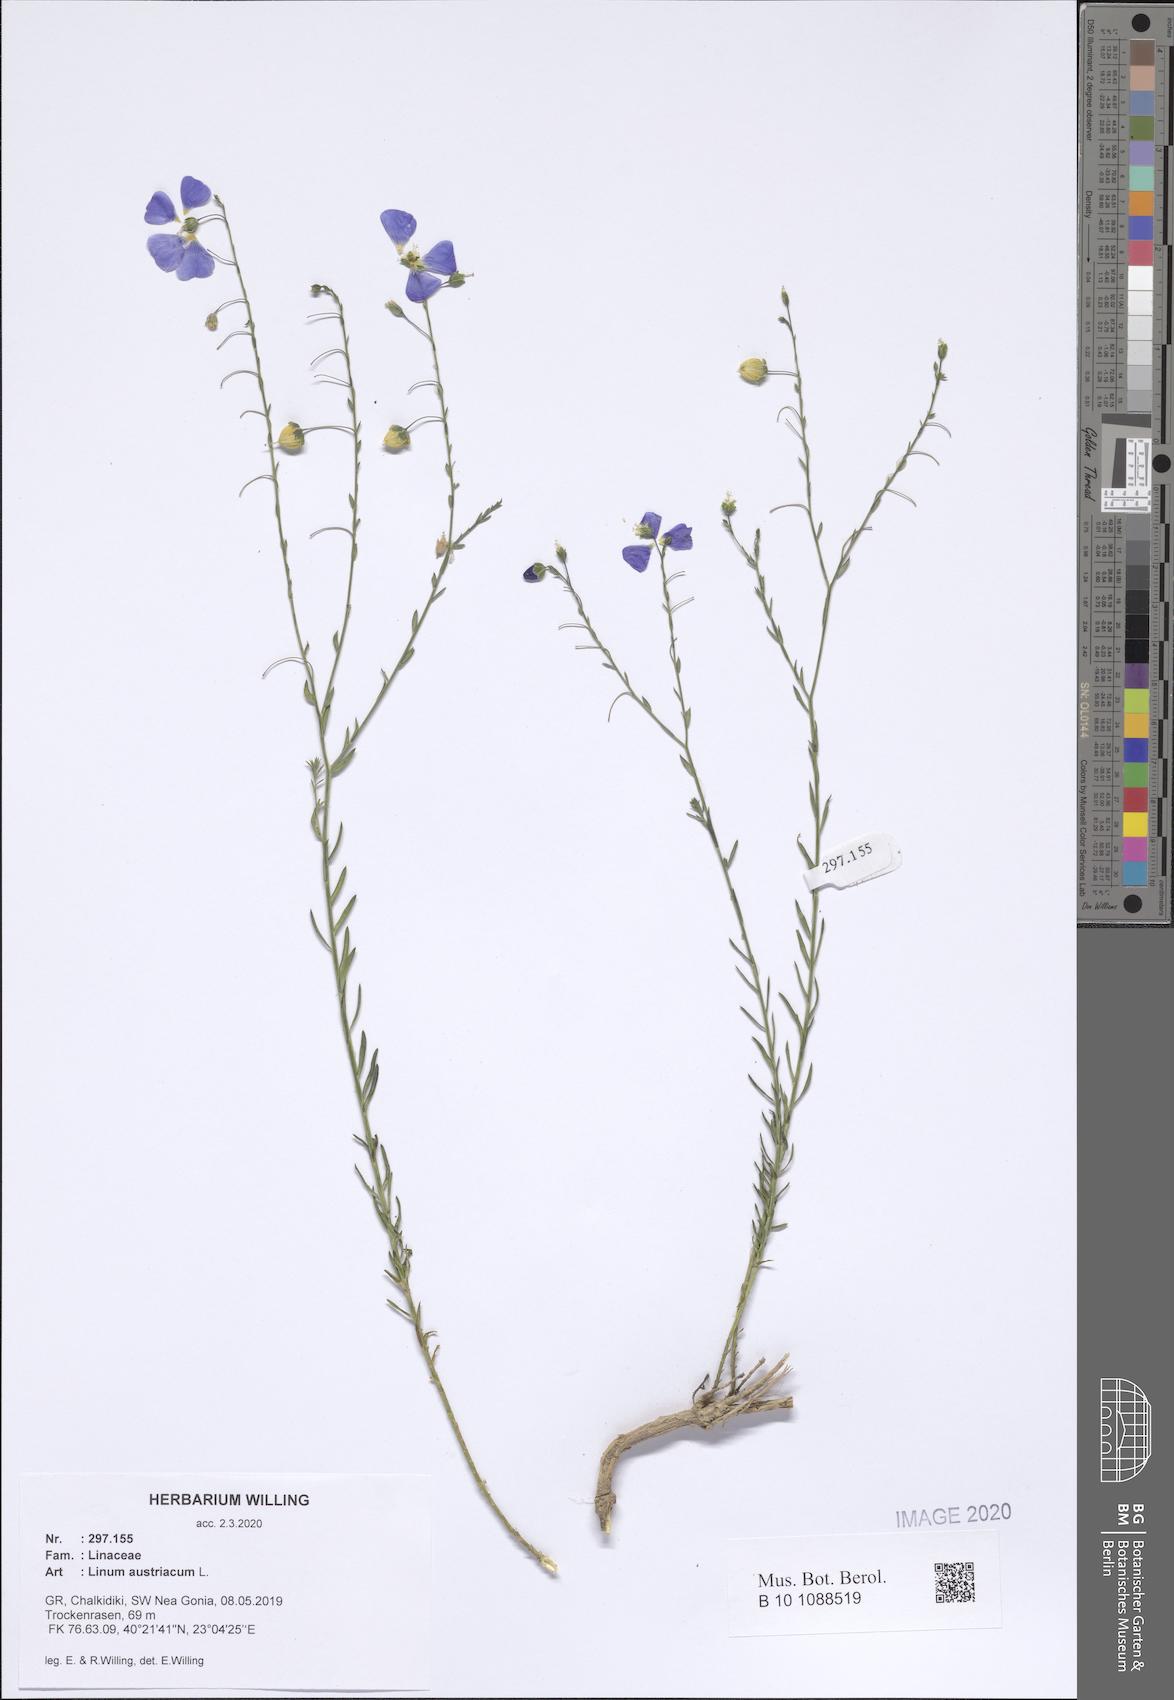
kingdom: Plantae
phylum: Tracheophyta
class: Magnoliopsida
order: Malpighiales
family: Linaceae
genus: Linum
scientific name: Linum austriacum
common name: Austrian flax
